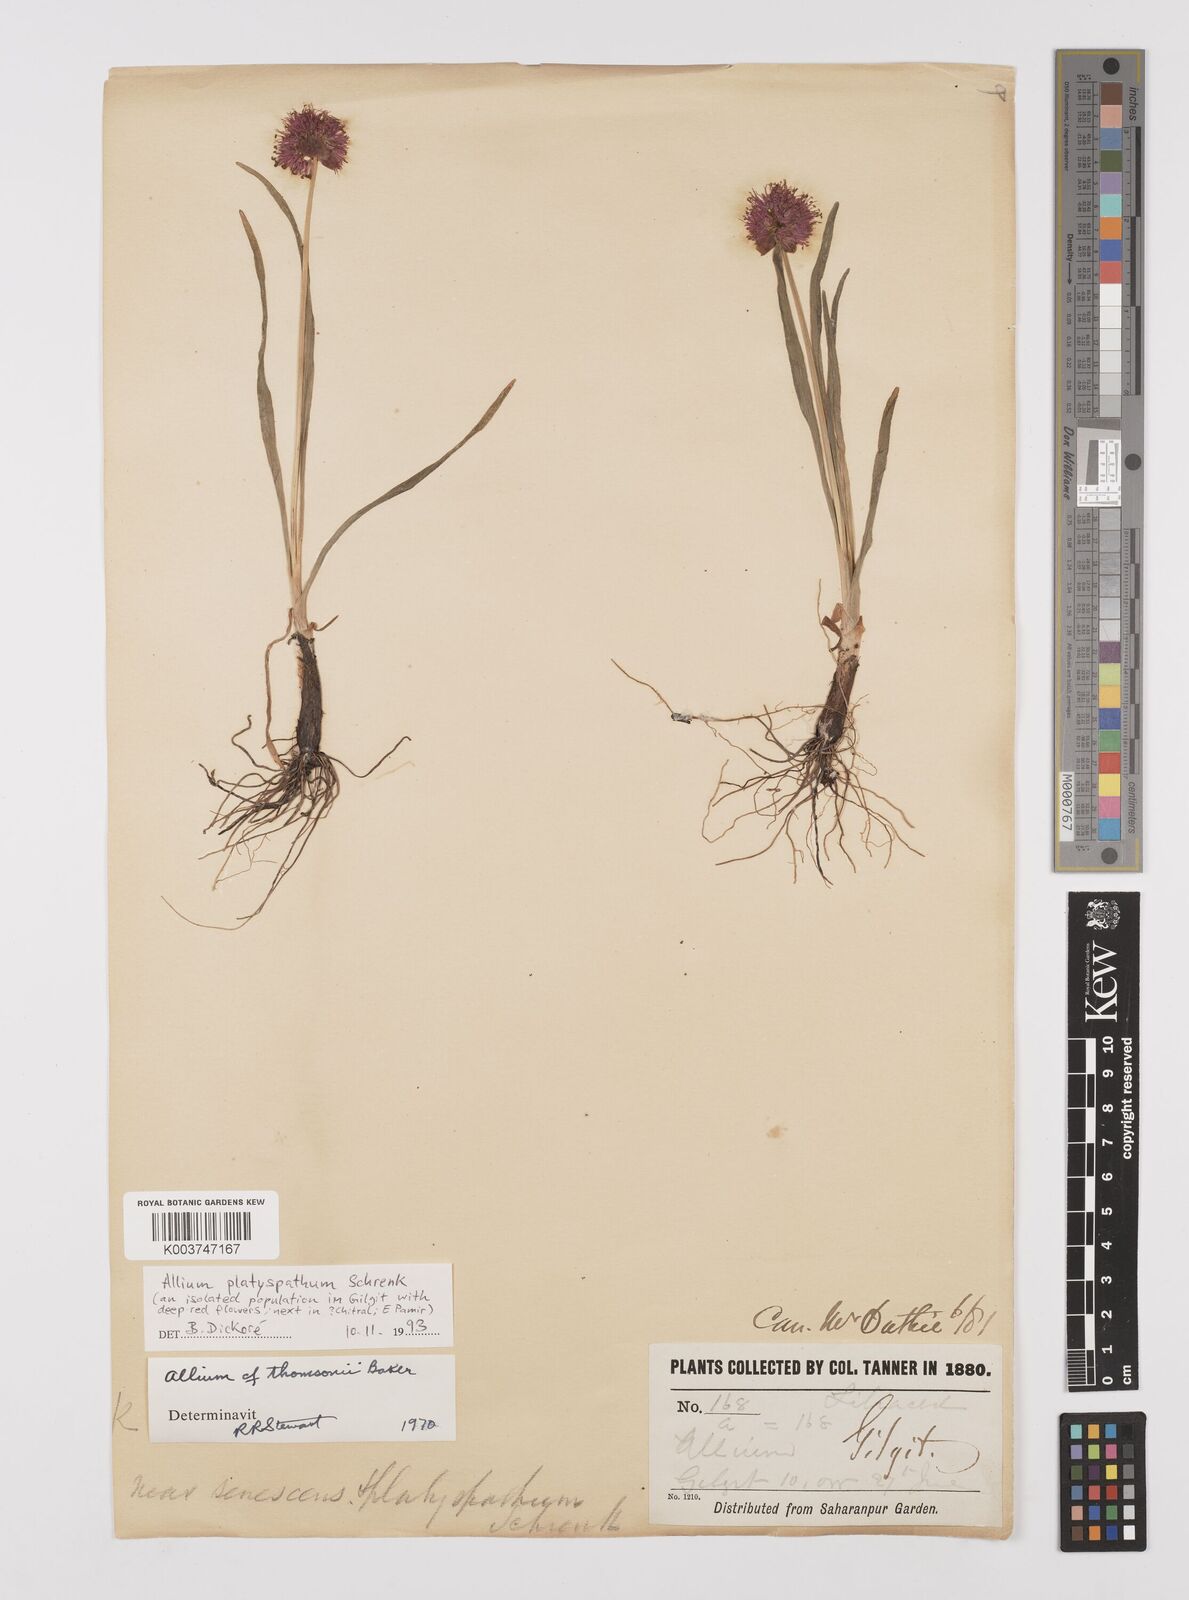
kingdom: Plantae
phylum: Tracheophyta
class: Liliopsida
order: Asparagales
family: Amaryllidaceae
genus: Allium
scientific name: Allium platyspathum
